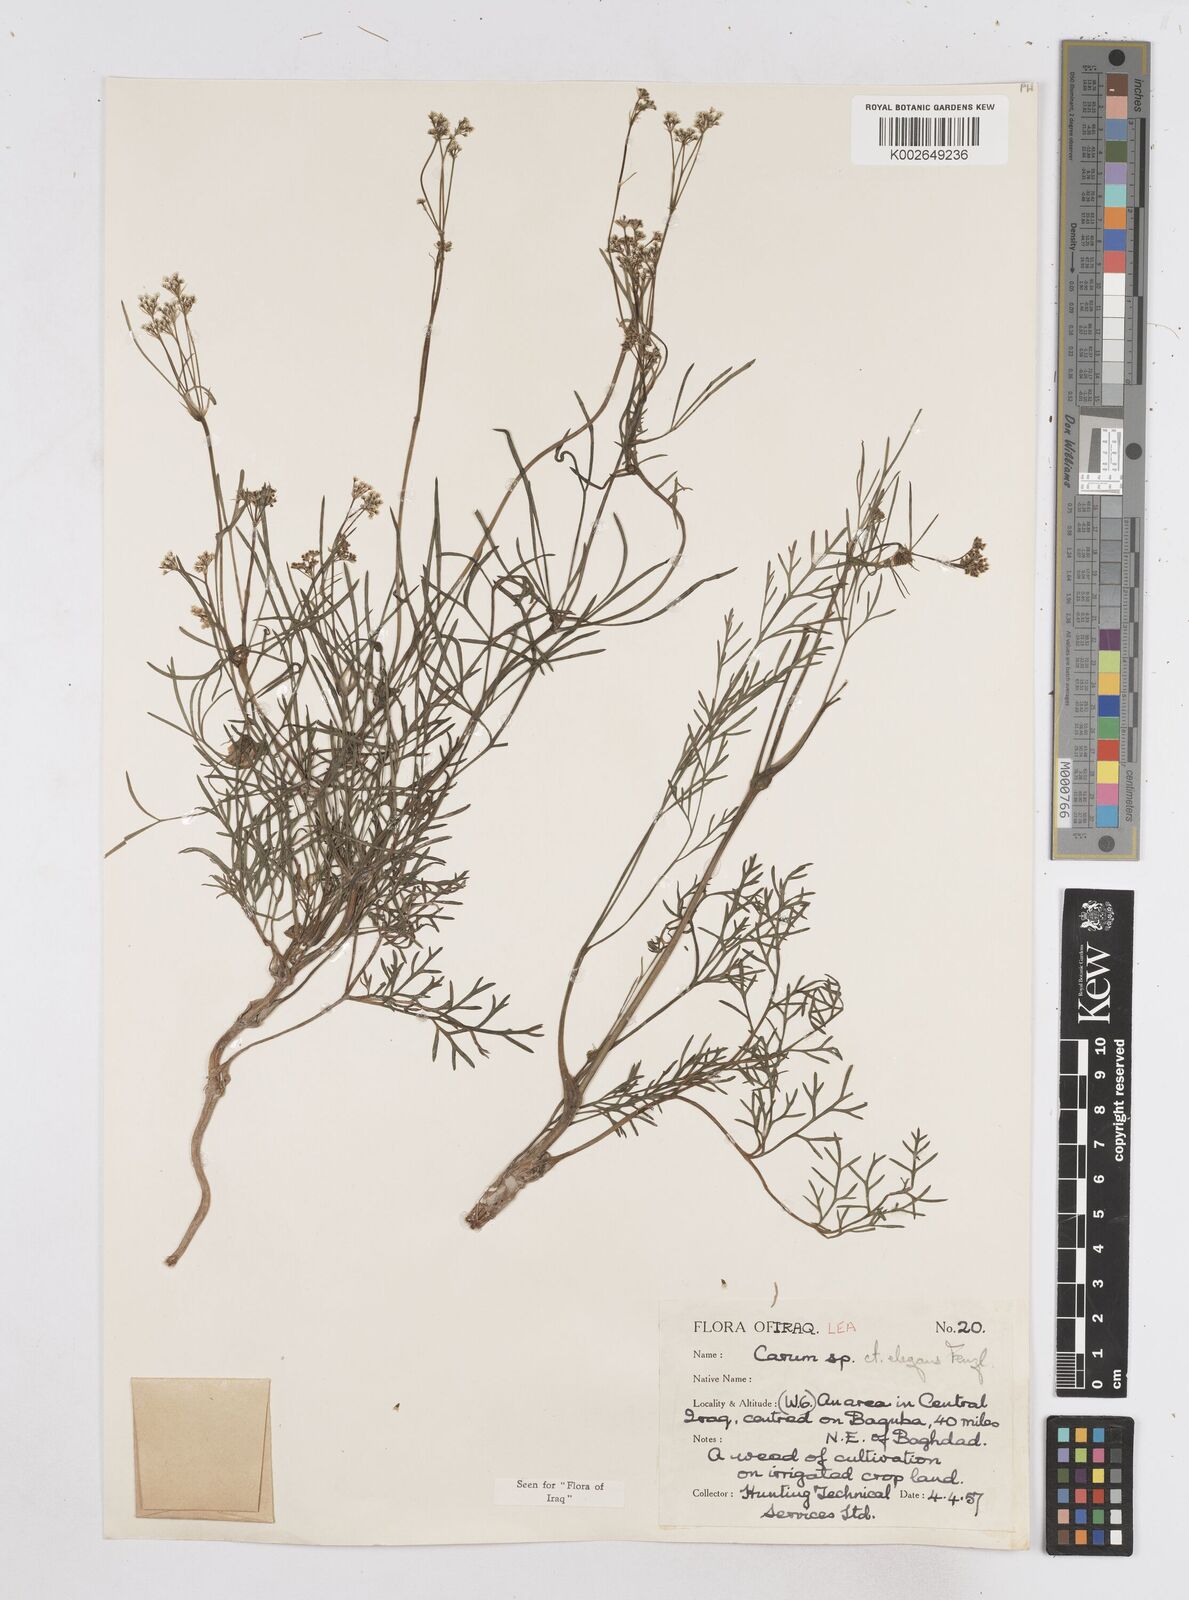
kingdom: Plantae
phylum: Tracheophyta
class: Magnoliopsida
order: Apiales
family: Apiaceae
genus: Bunium
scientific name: Bunium paucifolium
